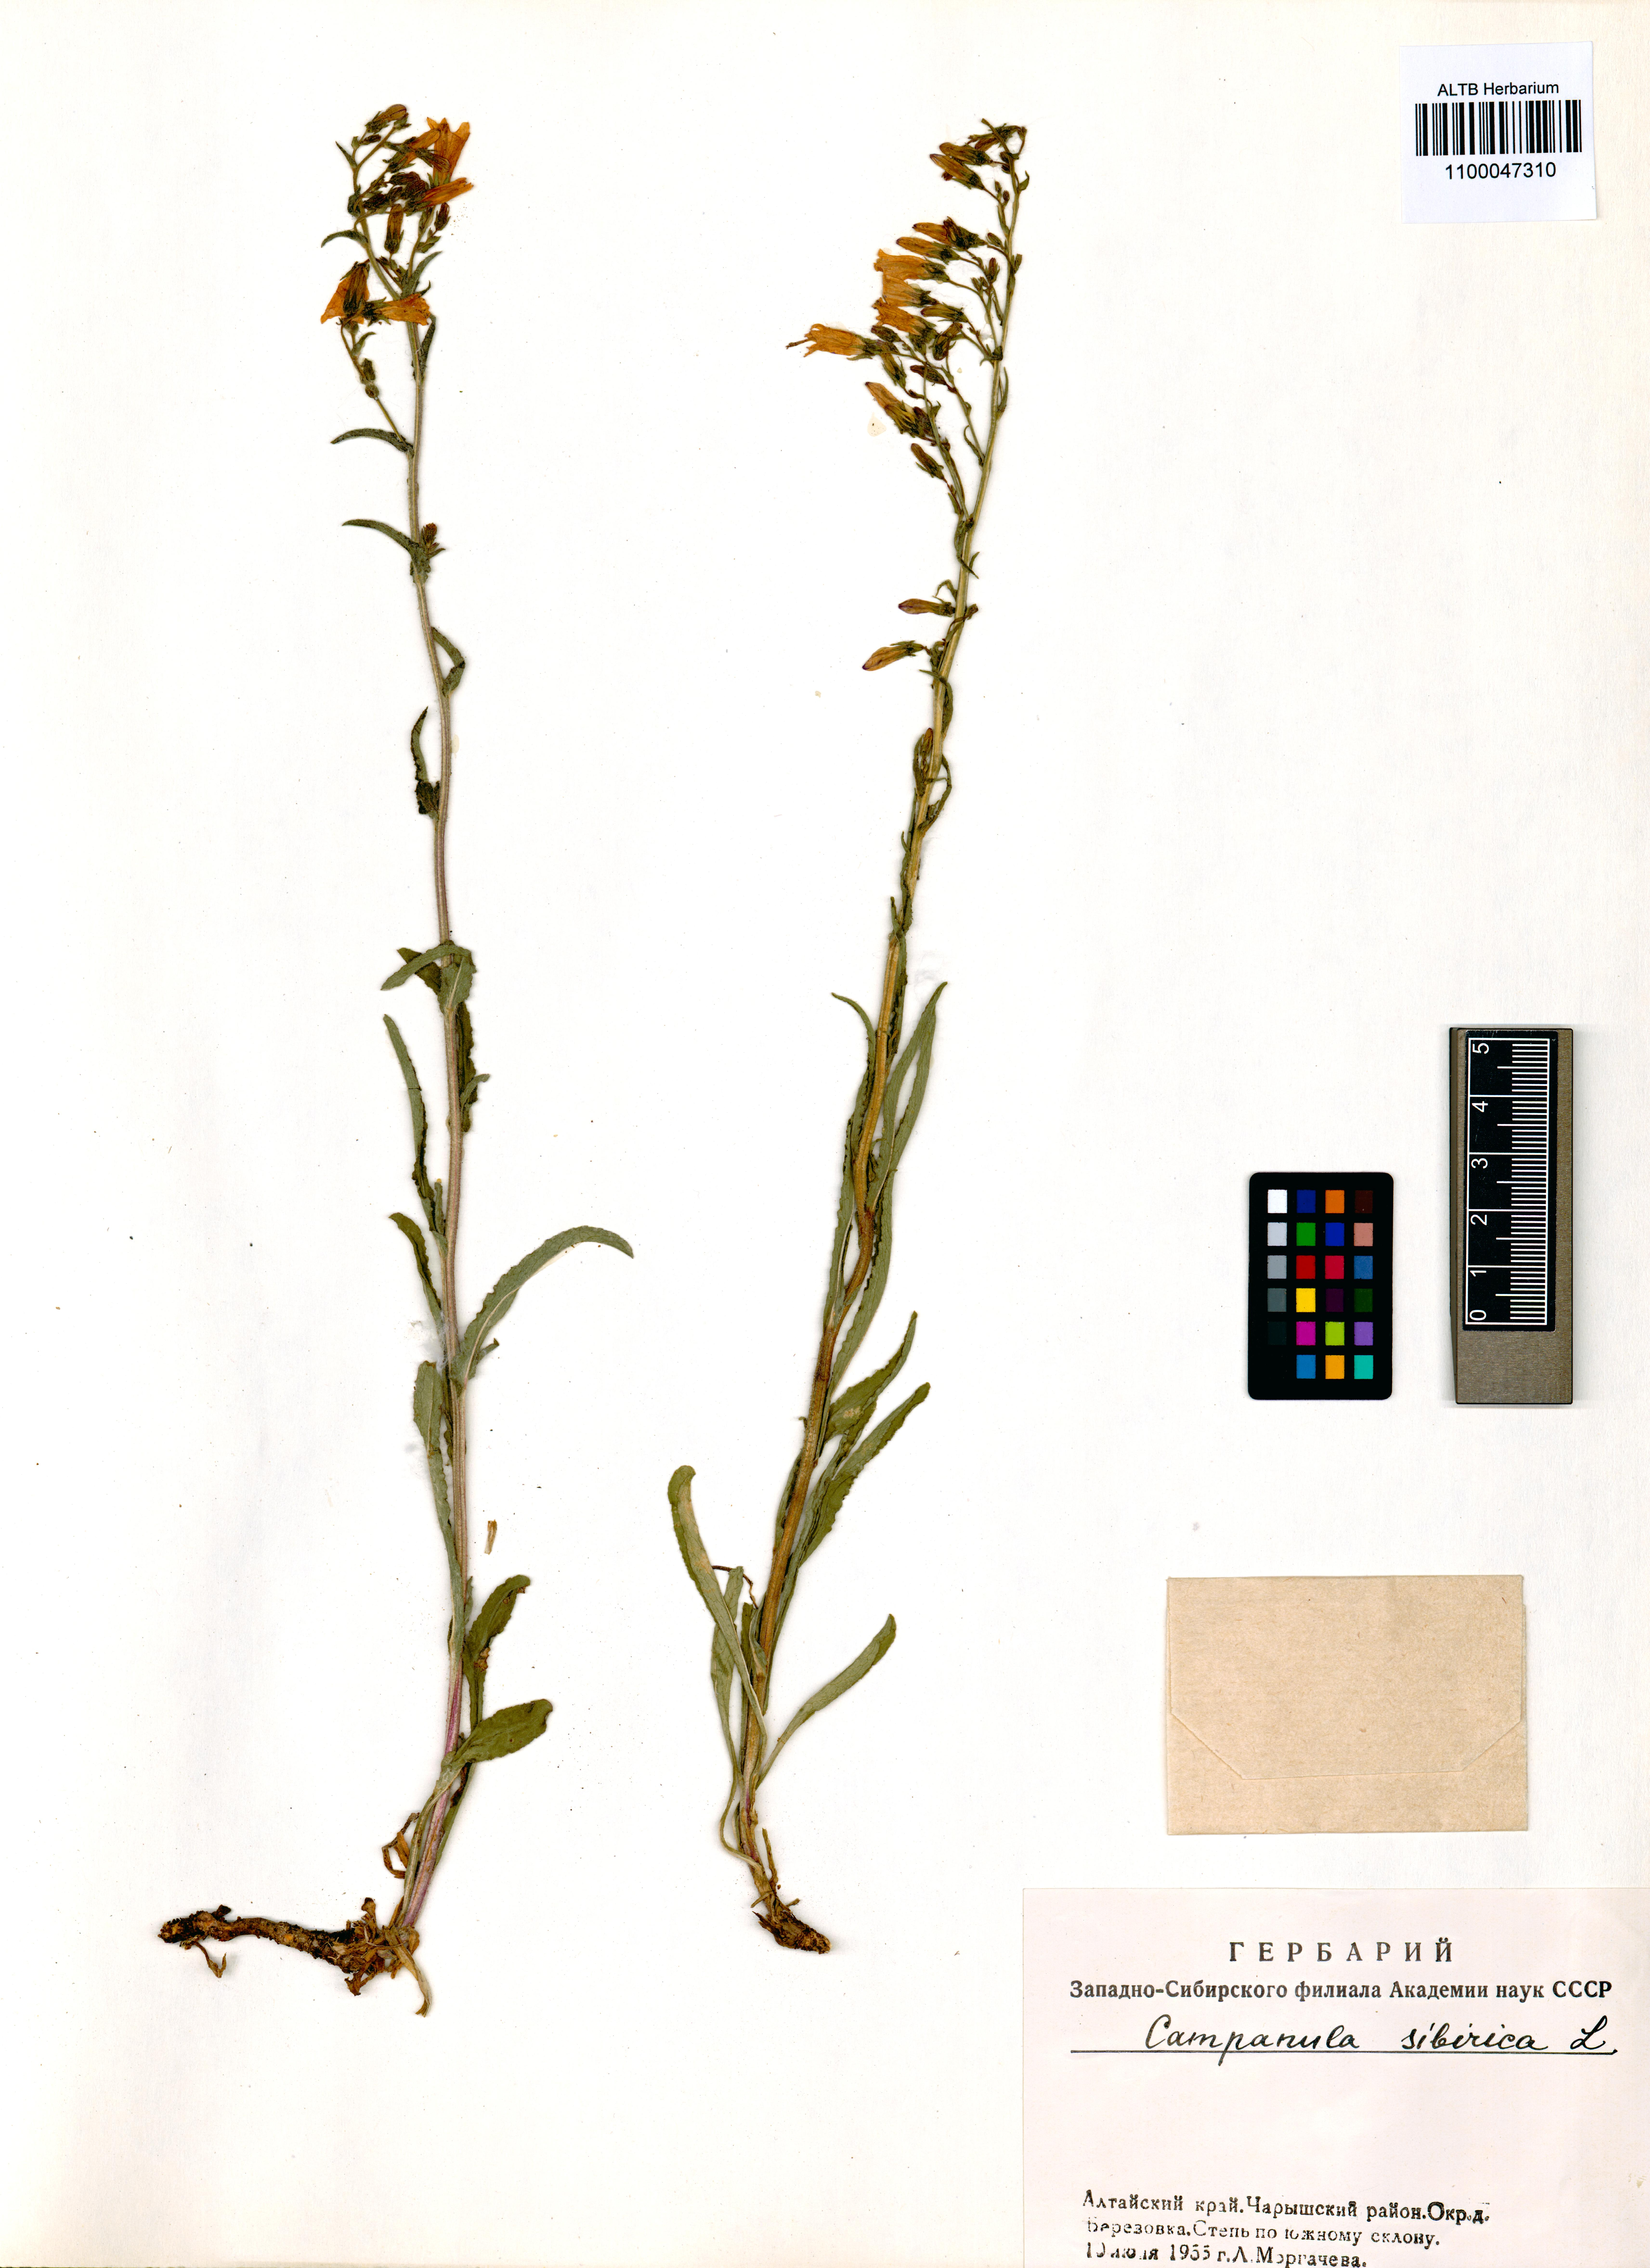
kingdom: Plantae
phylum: Tracheophyta
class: Magnoliopsida
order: Asterales
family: Campanulaceae
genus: Campanula
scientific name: Campanula sibirica
